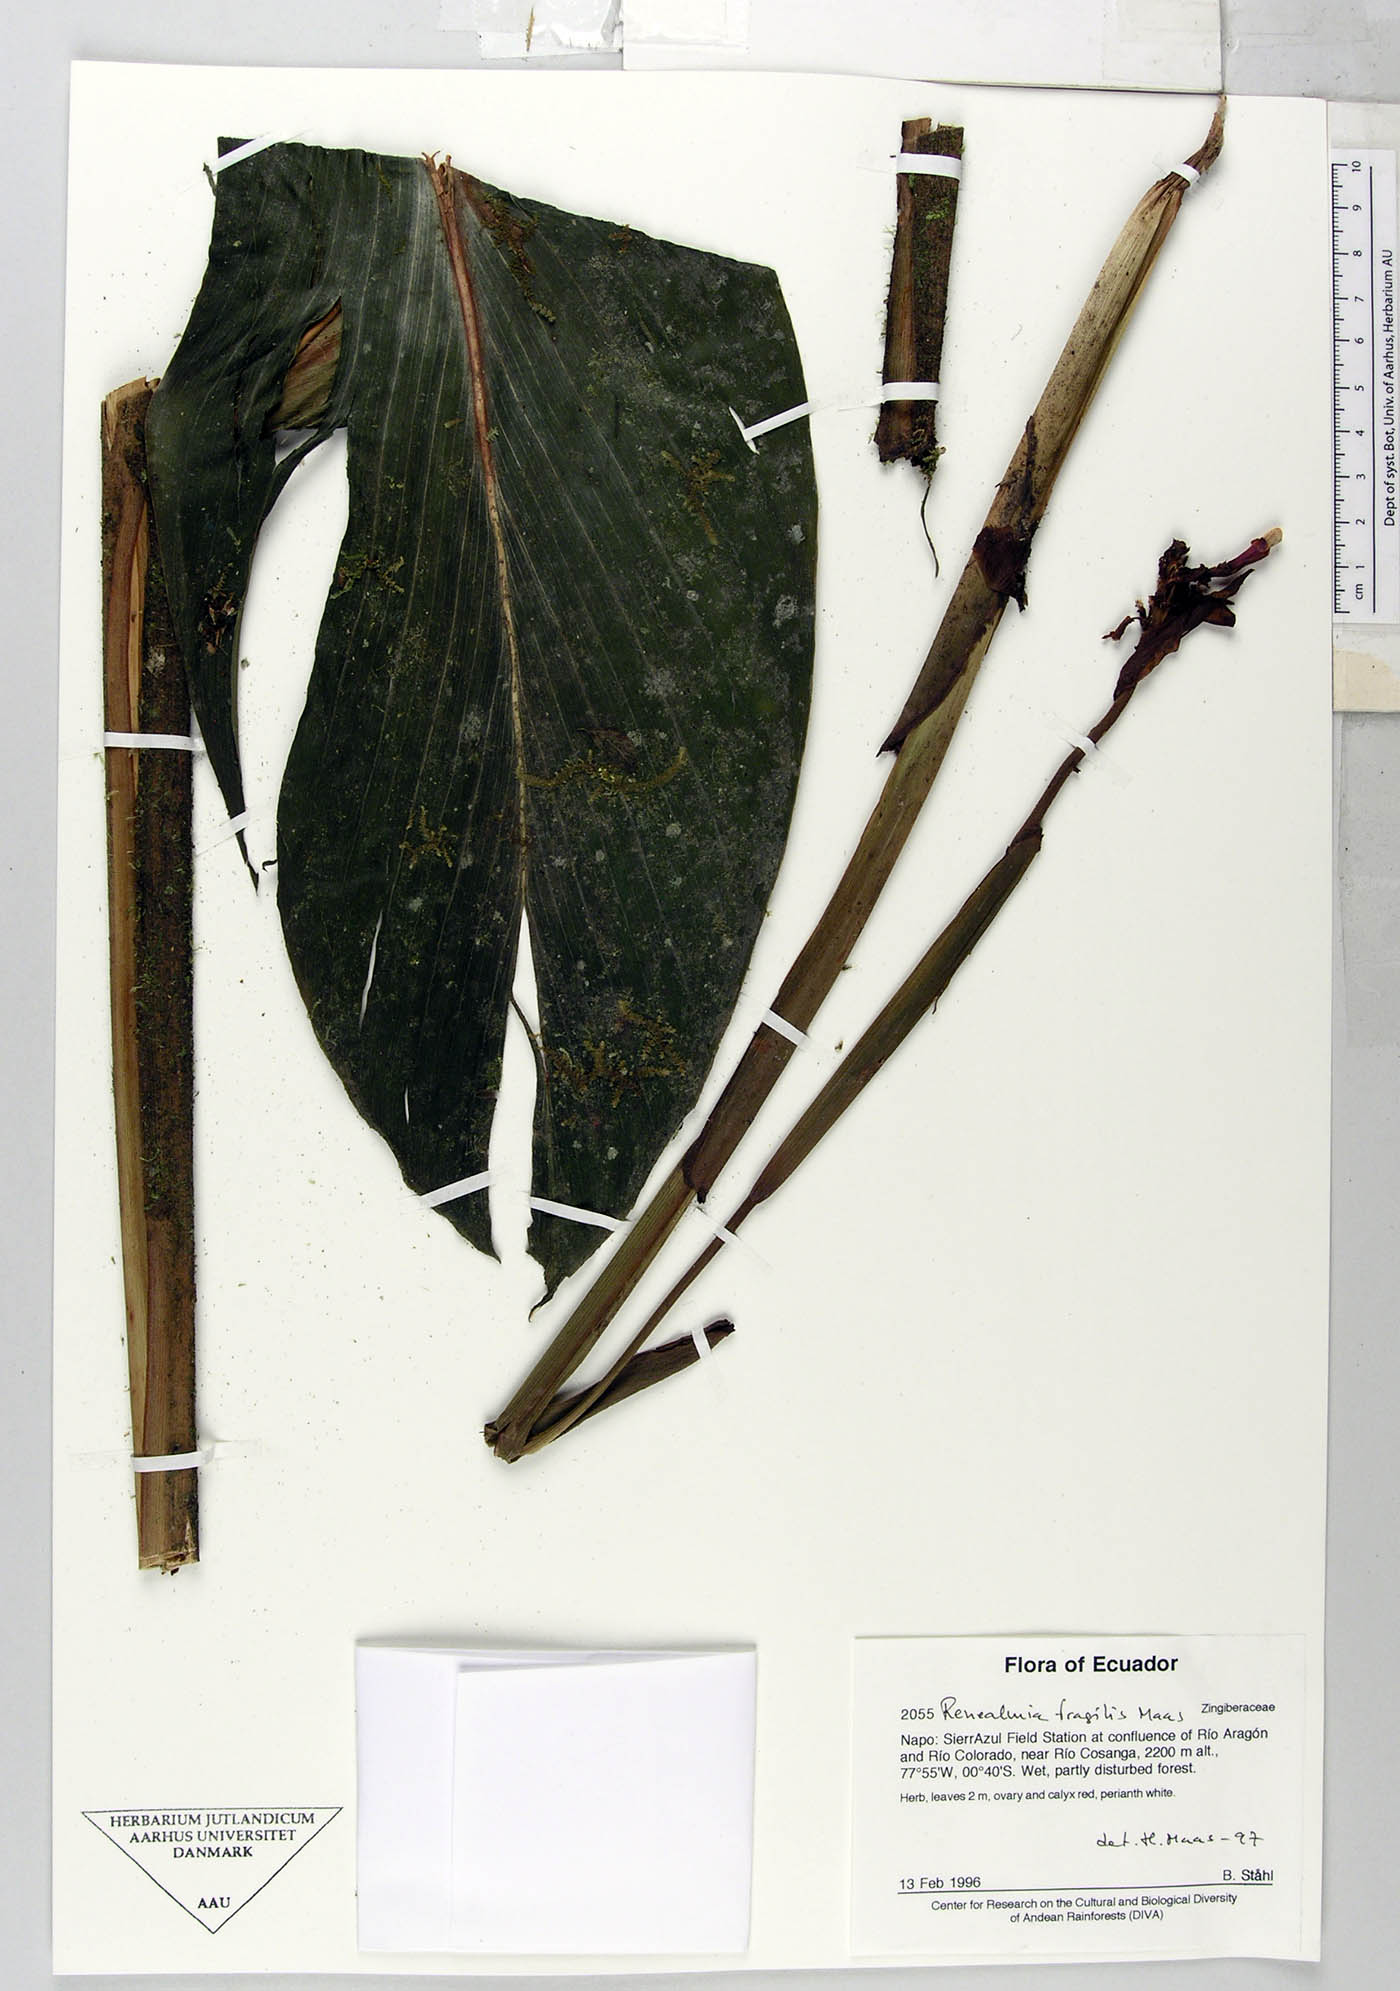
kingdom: Plantae
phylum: Tracheophyta
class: Liliopsida
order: Zingiberales
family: Zingiberaceae
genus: Renealmia
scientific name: Renealmia fragilis
